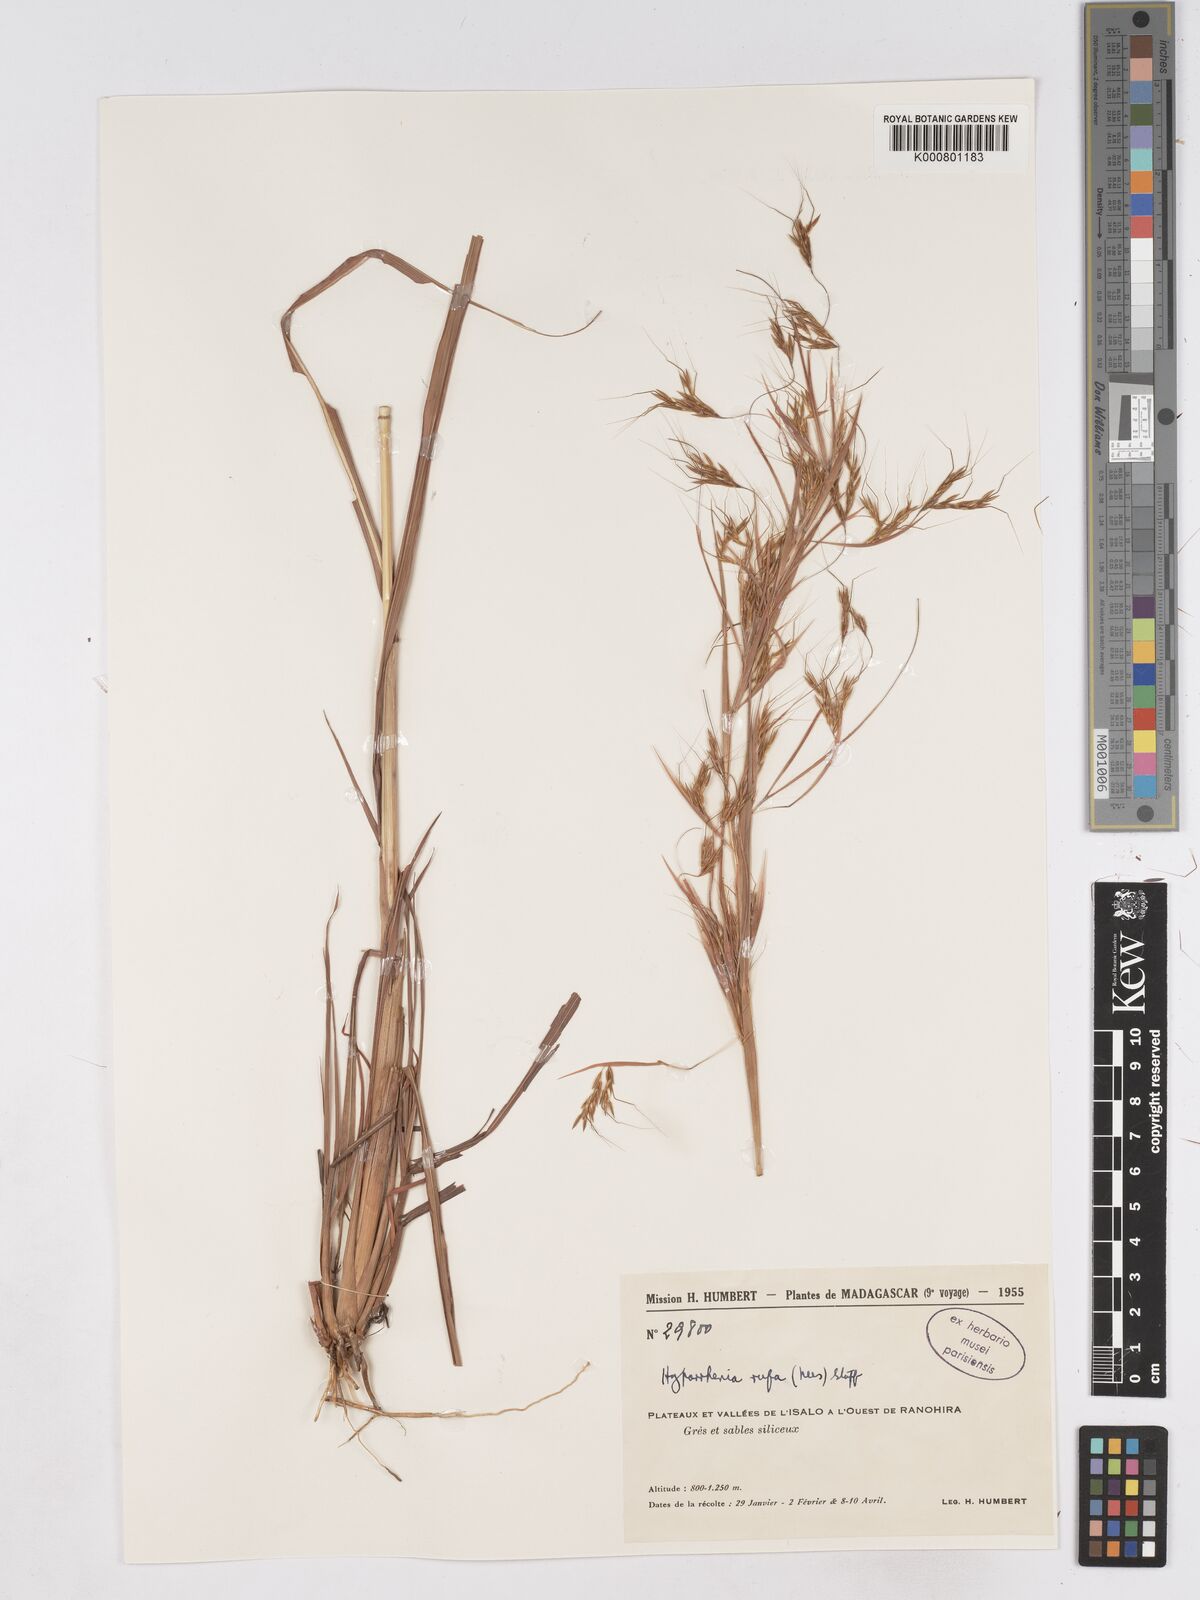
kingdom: Plantae
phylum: Tracheophyta
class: Liliopsida
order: Poales
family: Poaceae
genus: Hyparrhenia
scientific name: Hyparrhenia rufa
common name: Jaraguagrass
